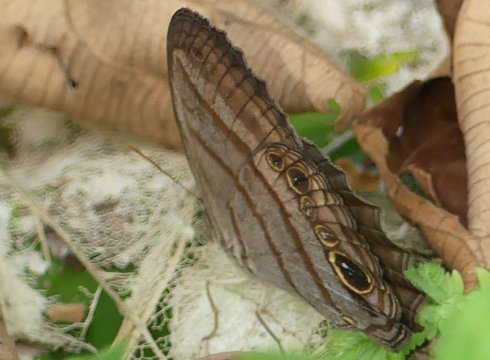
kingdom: Animalia
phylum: Arthropoda
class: Insecta
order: Lepidoptera
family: Nymphalidae
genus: Magneuptychia
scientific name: Magneuptychia libye
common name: Blue-gray Satyr
